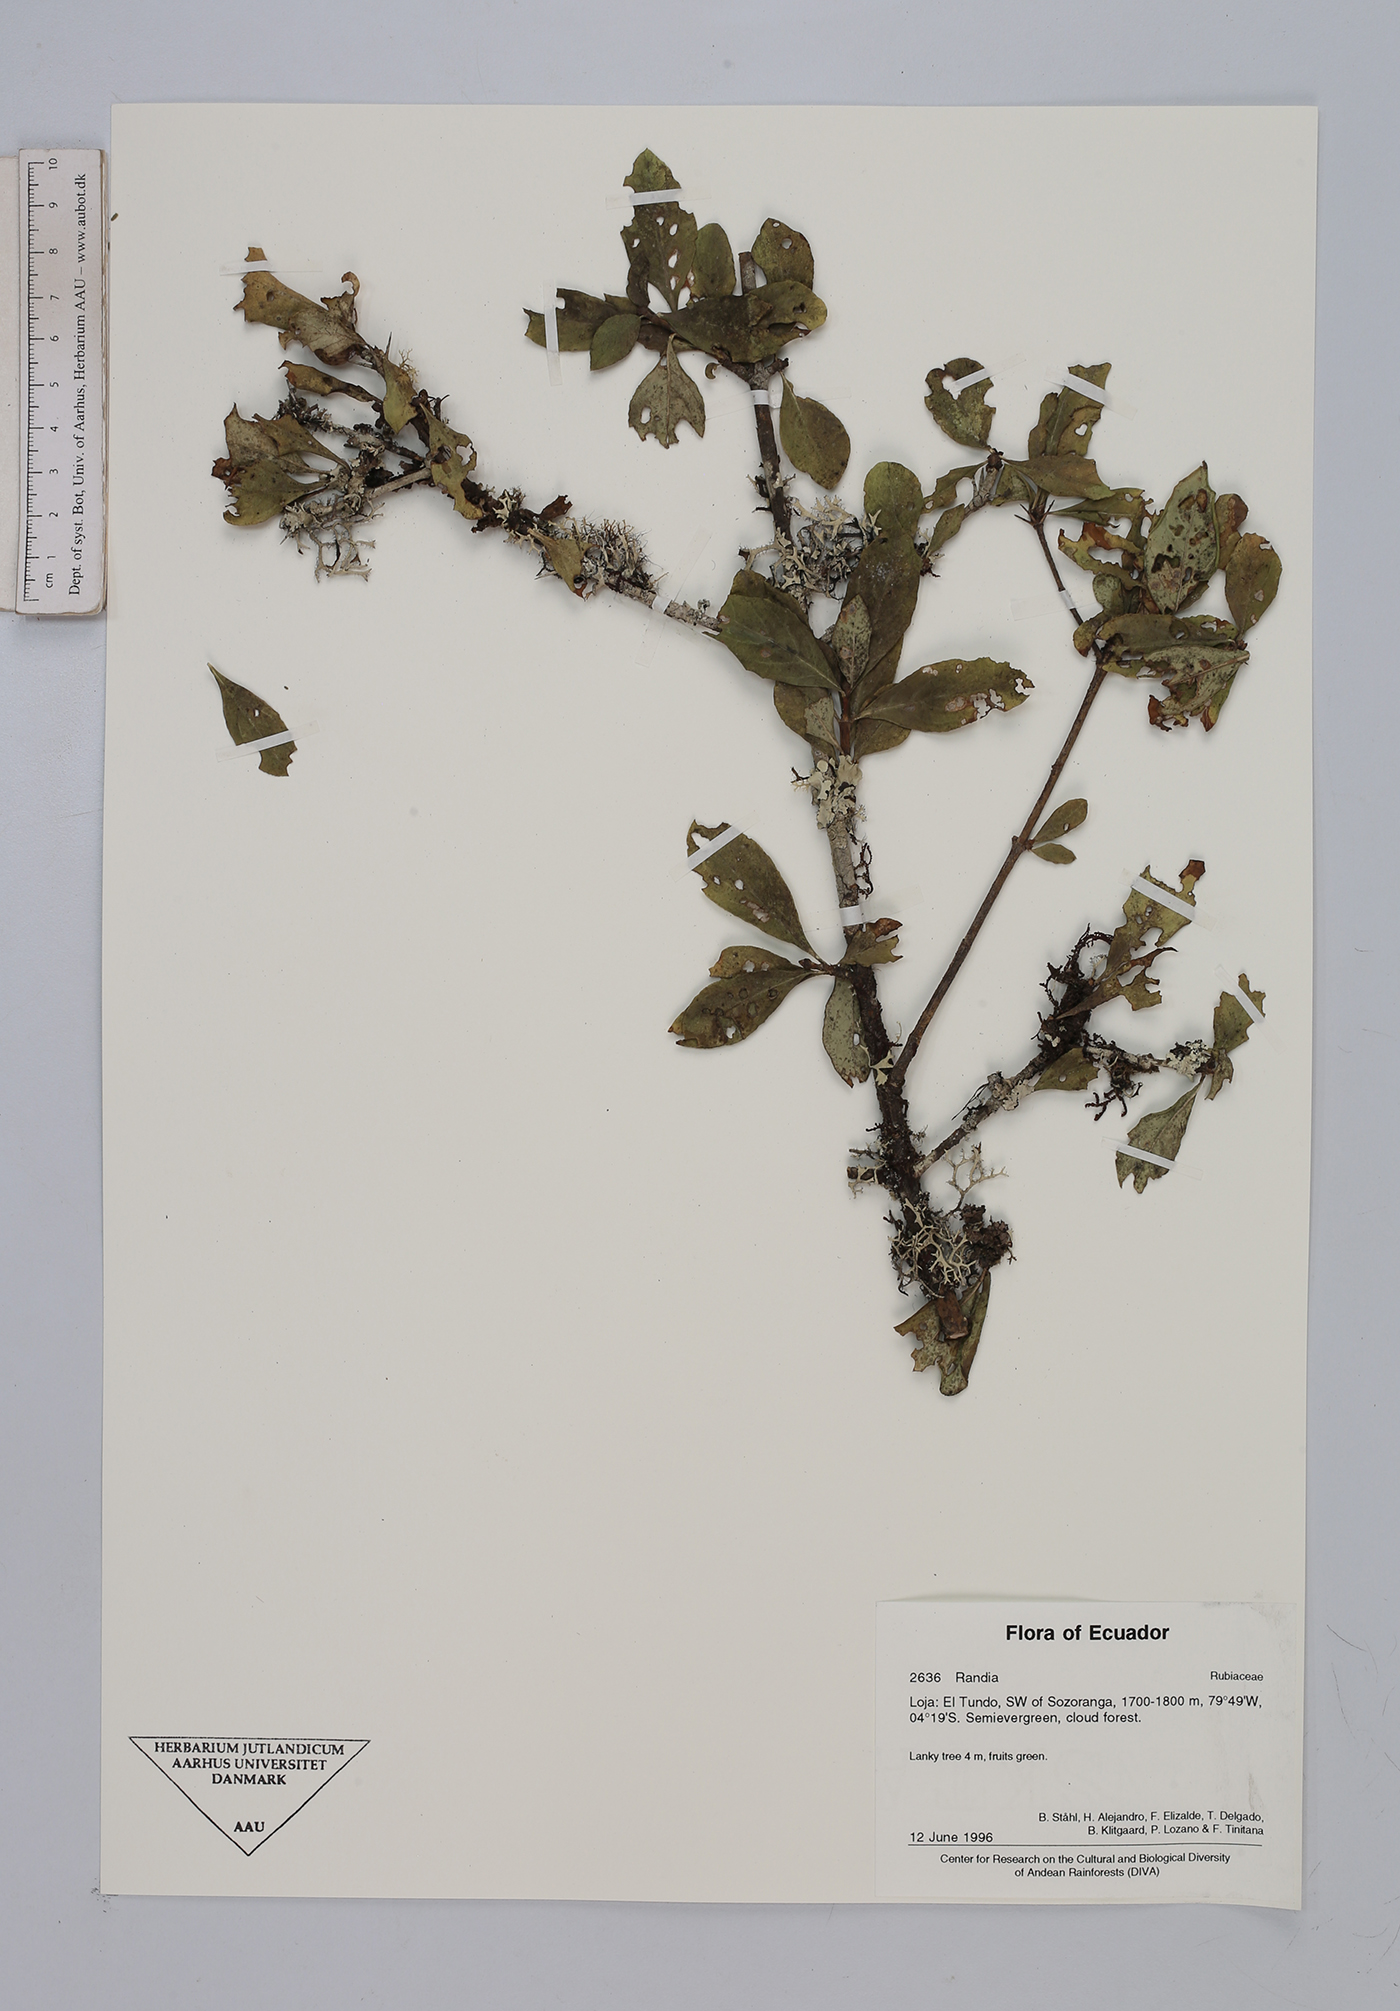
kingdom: Plantae
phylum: Tracheophyta
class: Magnoliopsida
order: Gentianales
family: Rubiaceae
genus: Randia
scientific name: Randia
